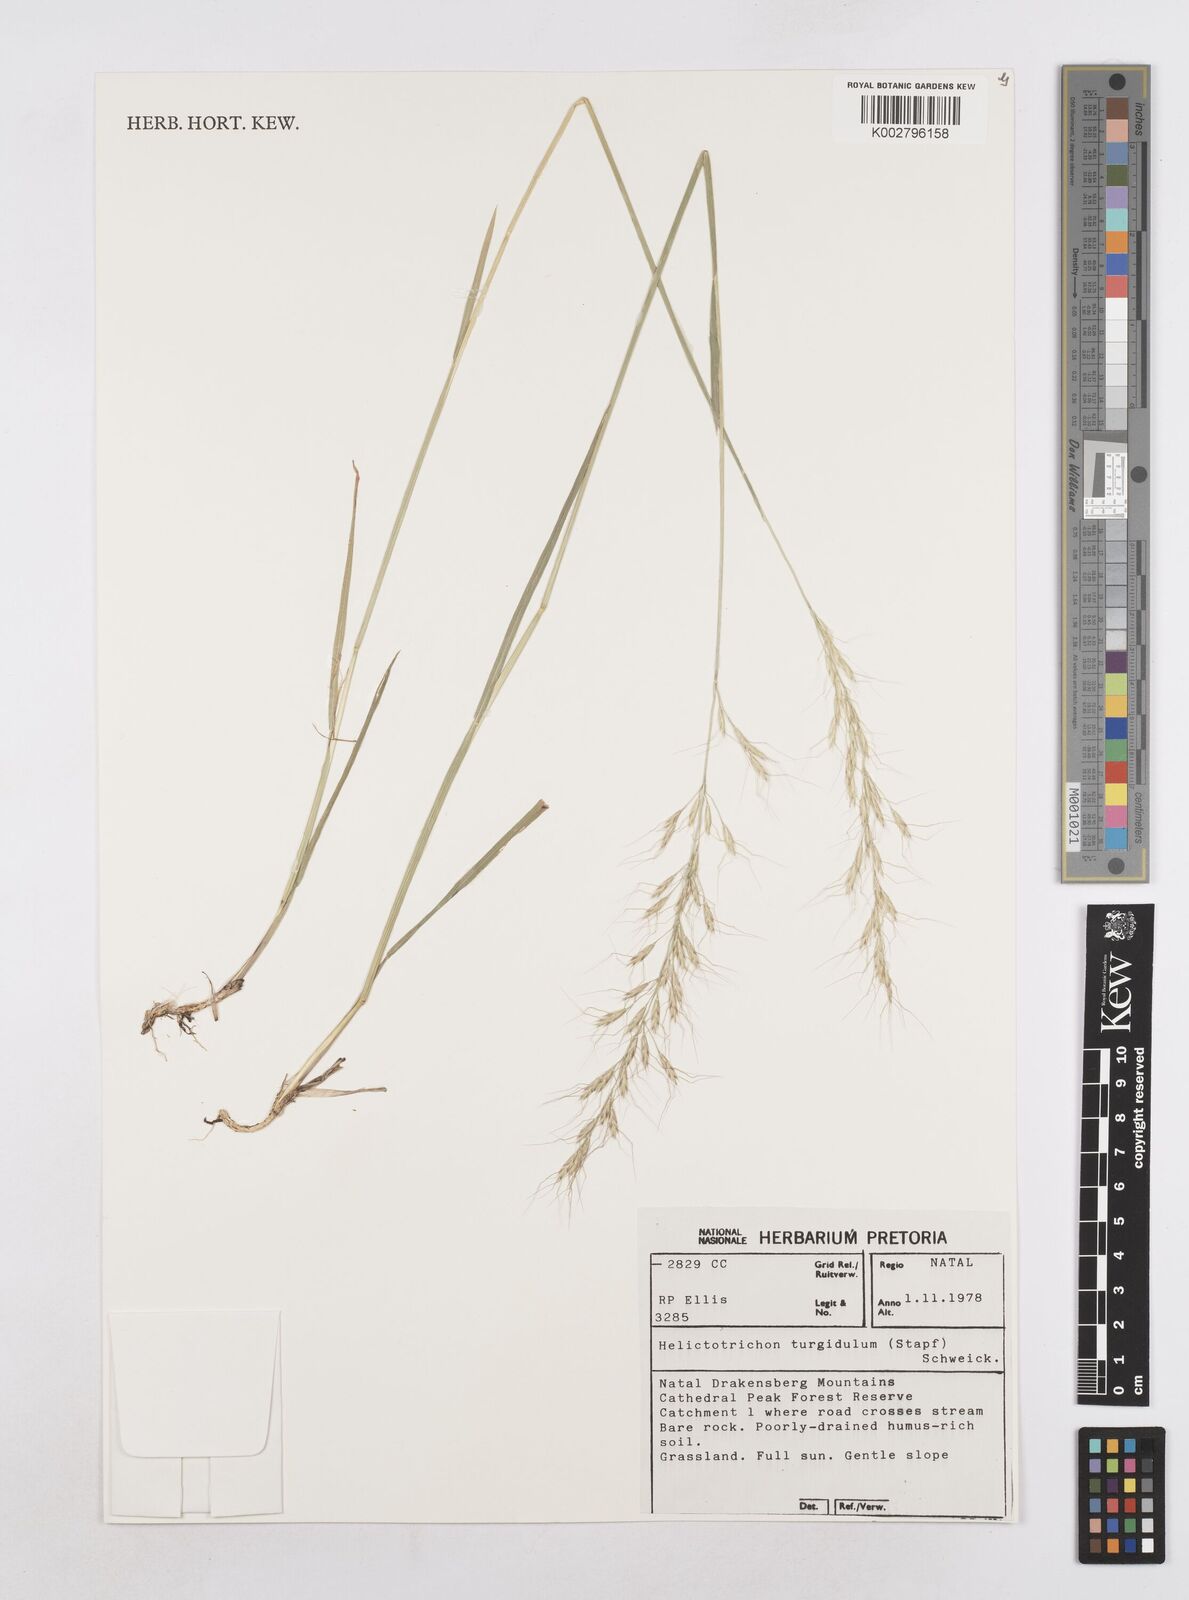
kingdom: Plantae
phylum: Tracheophyta
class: Liliopsida
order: Poales
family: Poaceae
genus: Trisetopsis
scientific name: Trisetopsis imberbis
